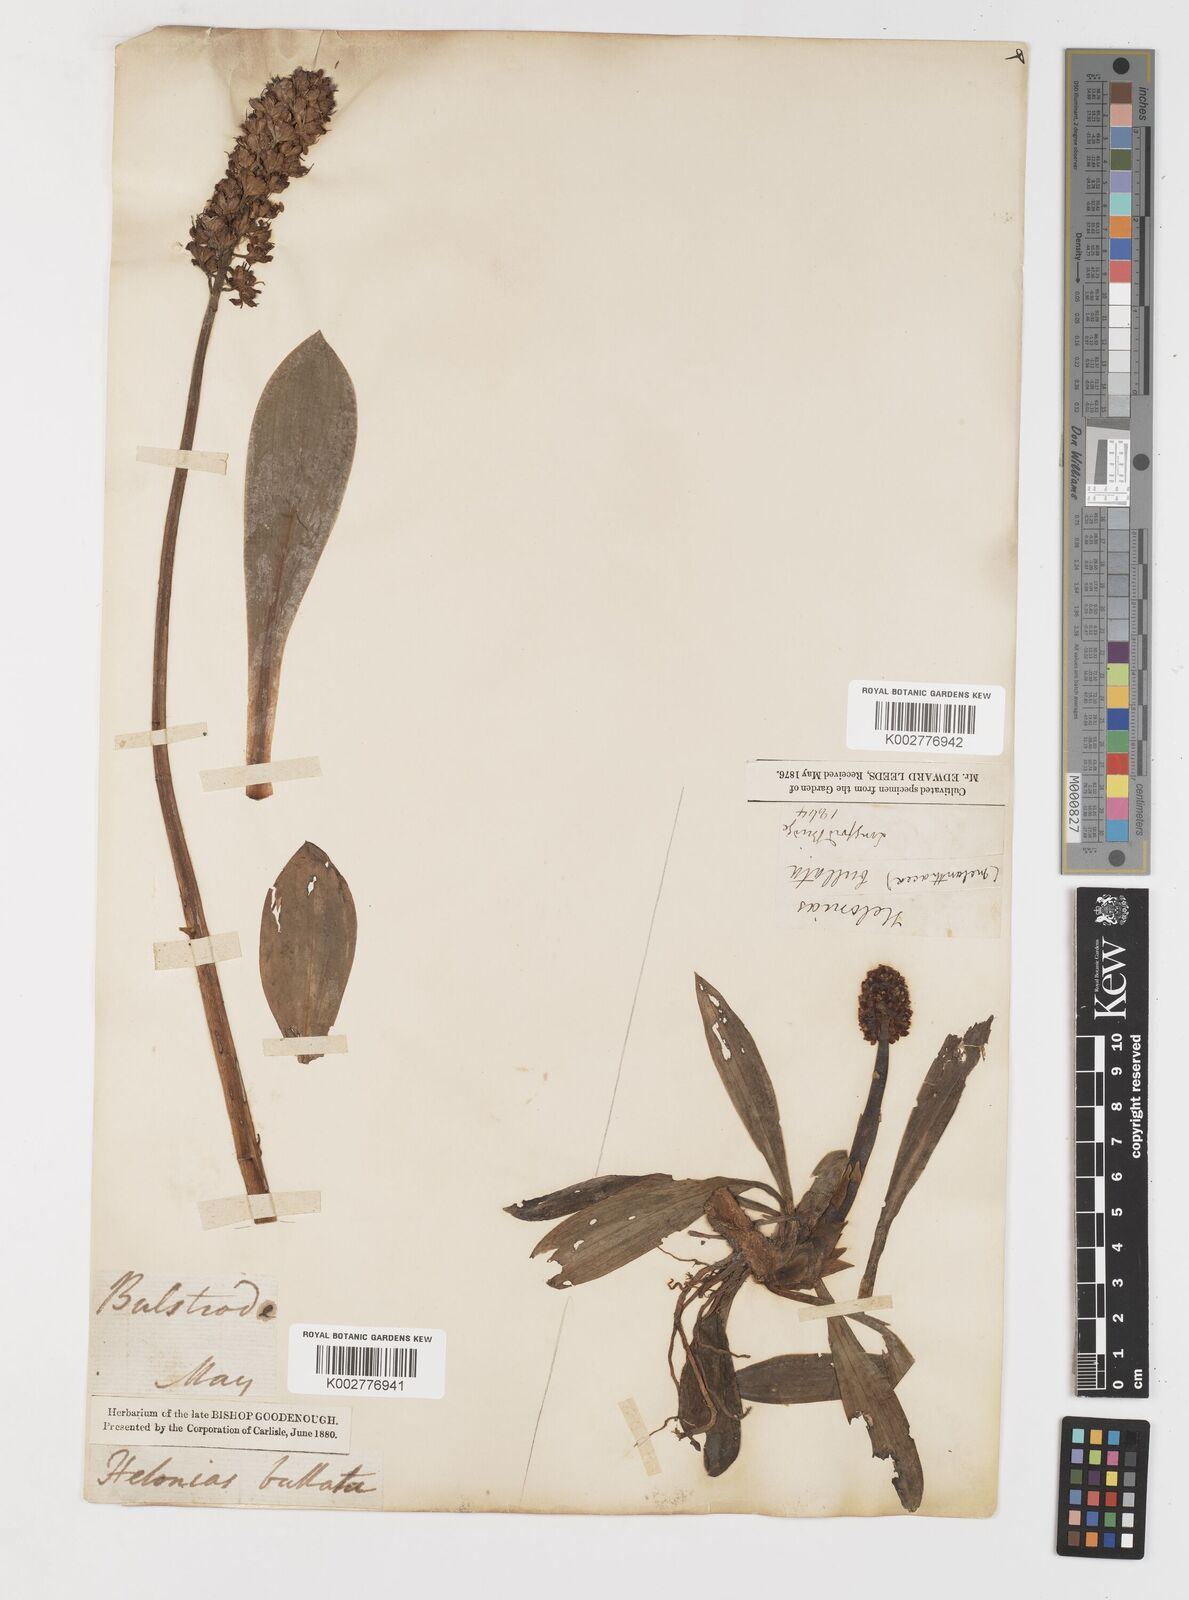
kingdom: Plantae
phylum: Tracheophyta
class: Liliopsida
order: Liliales
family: Melanthiaceae
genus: Helonias
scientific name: Helonias bullata
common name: Swamp-pink
